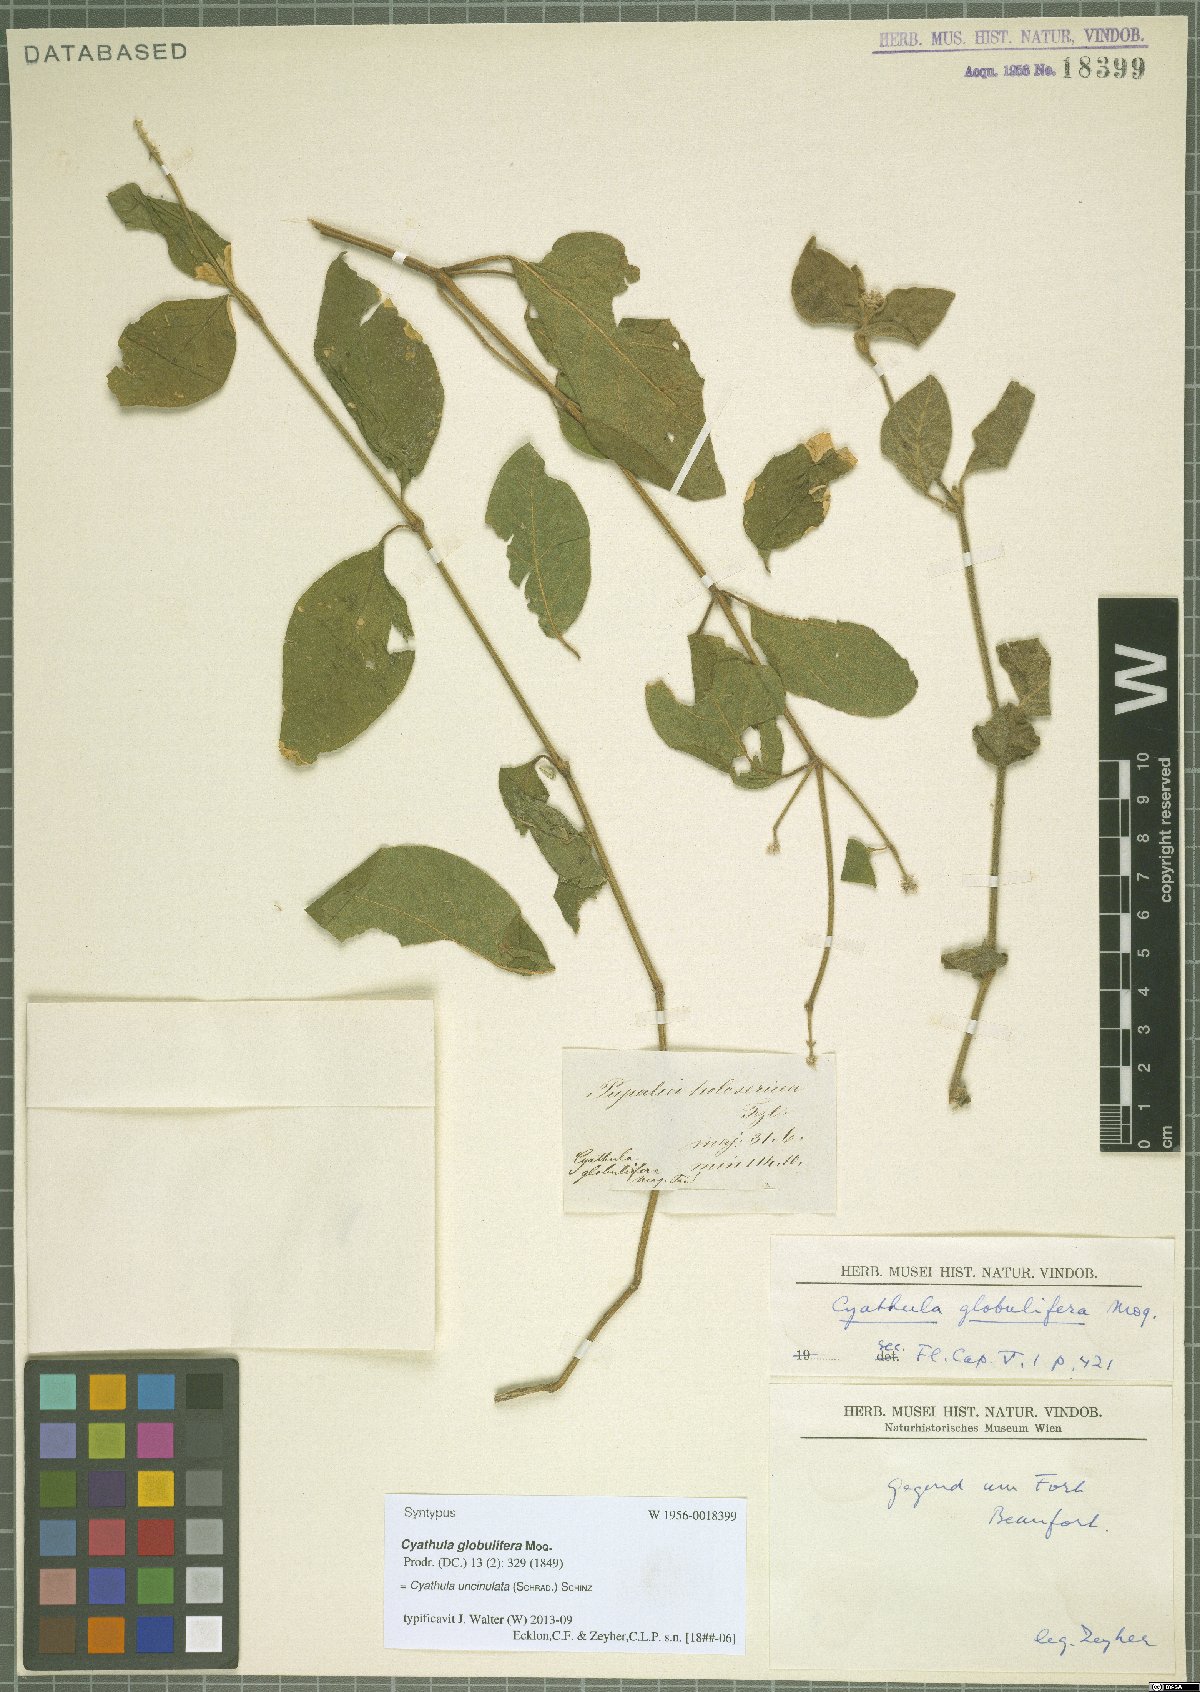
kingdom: Plantae
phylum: Tracheophyta
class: Magnoliopsida
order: Caryophyllales
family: Amaranthaceae
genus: Cyathula
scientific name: Cyathula uncinulata
